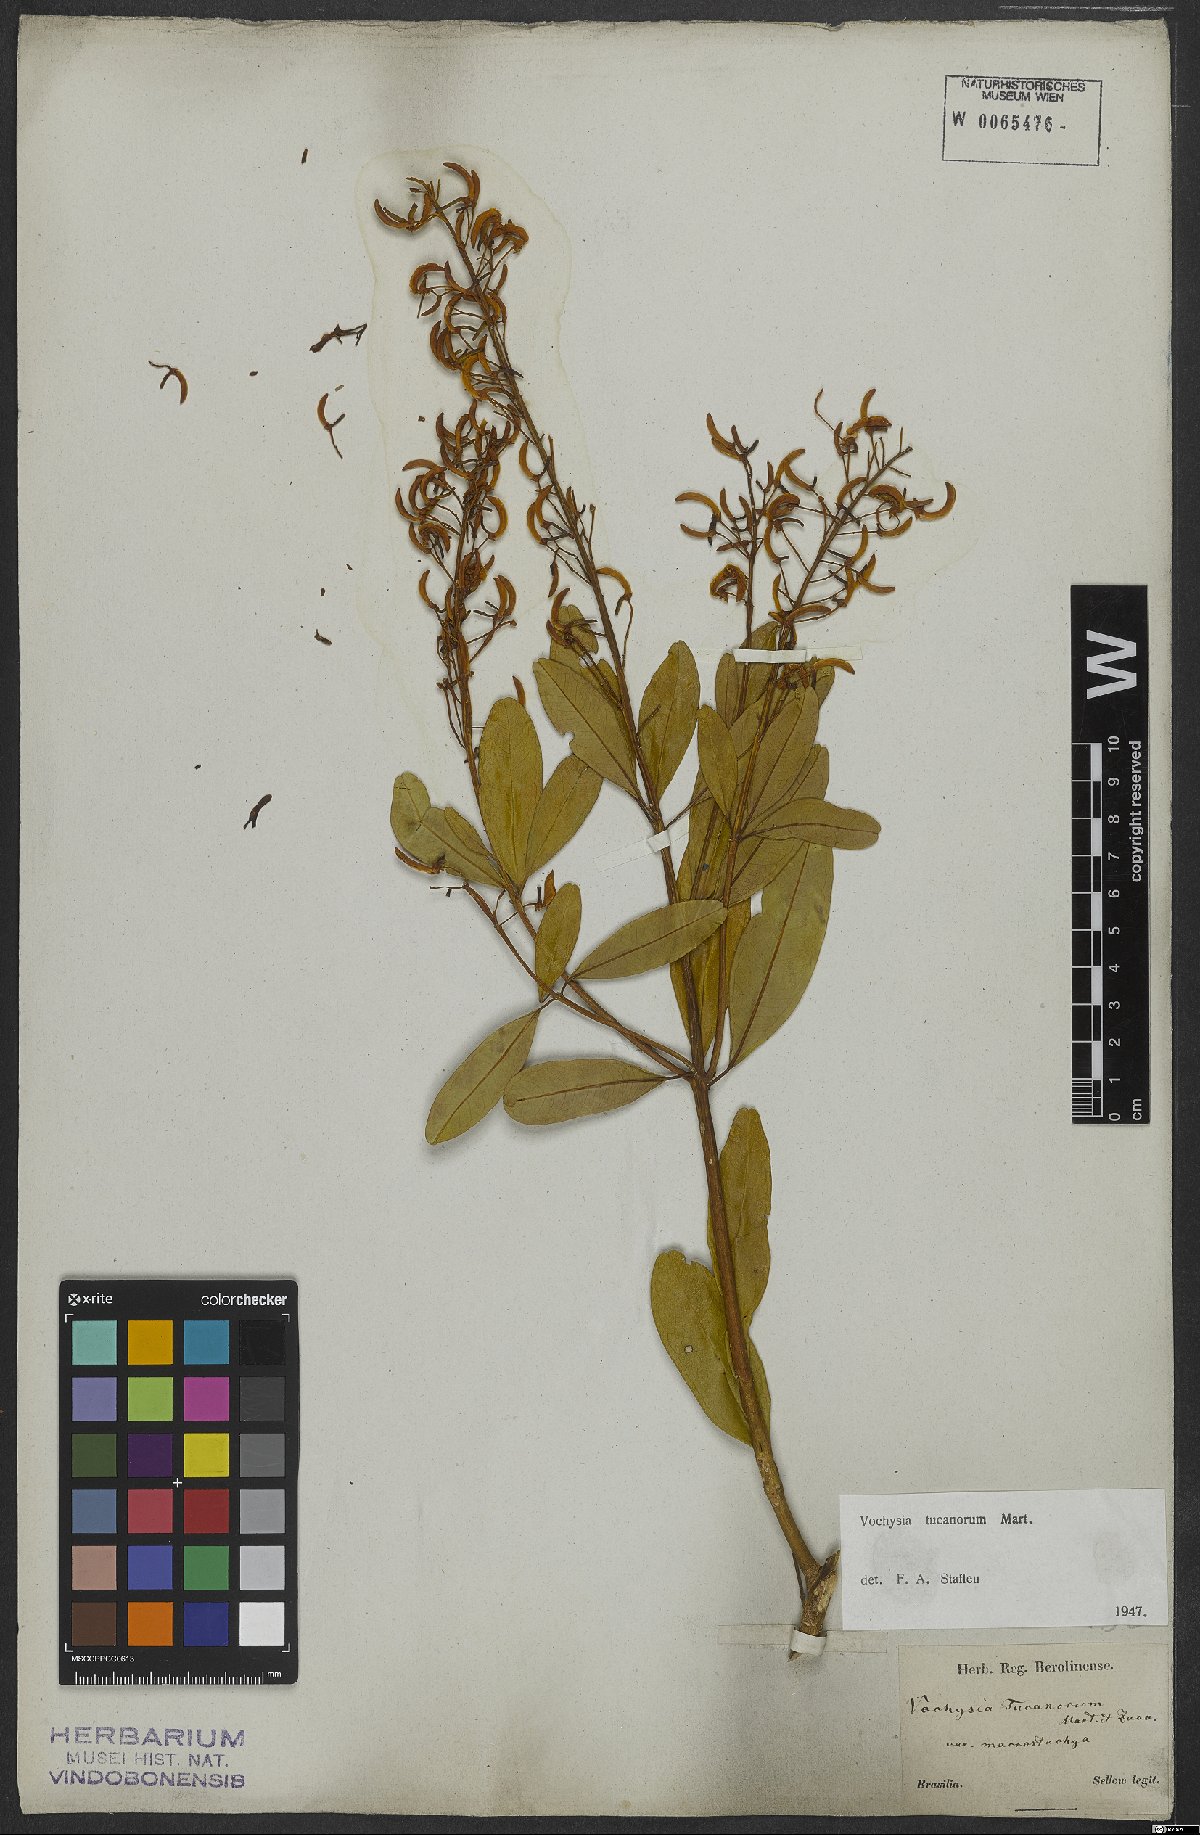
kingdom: Plantae
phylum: Tracheophyta
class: Magnoliopsida
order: Myrtales
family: Vochysiaceae
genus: Vochysia
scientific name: Vochysia tucanorum
